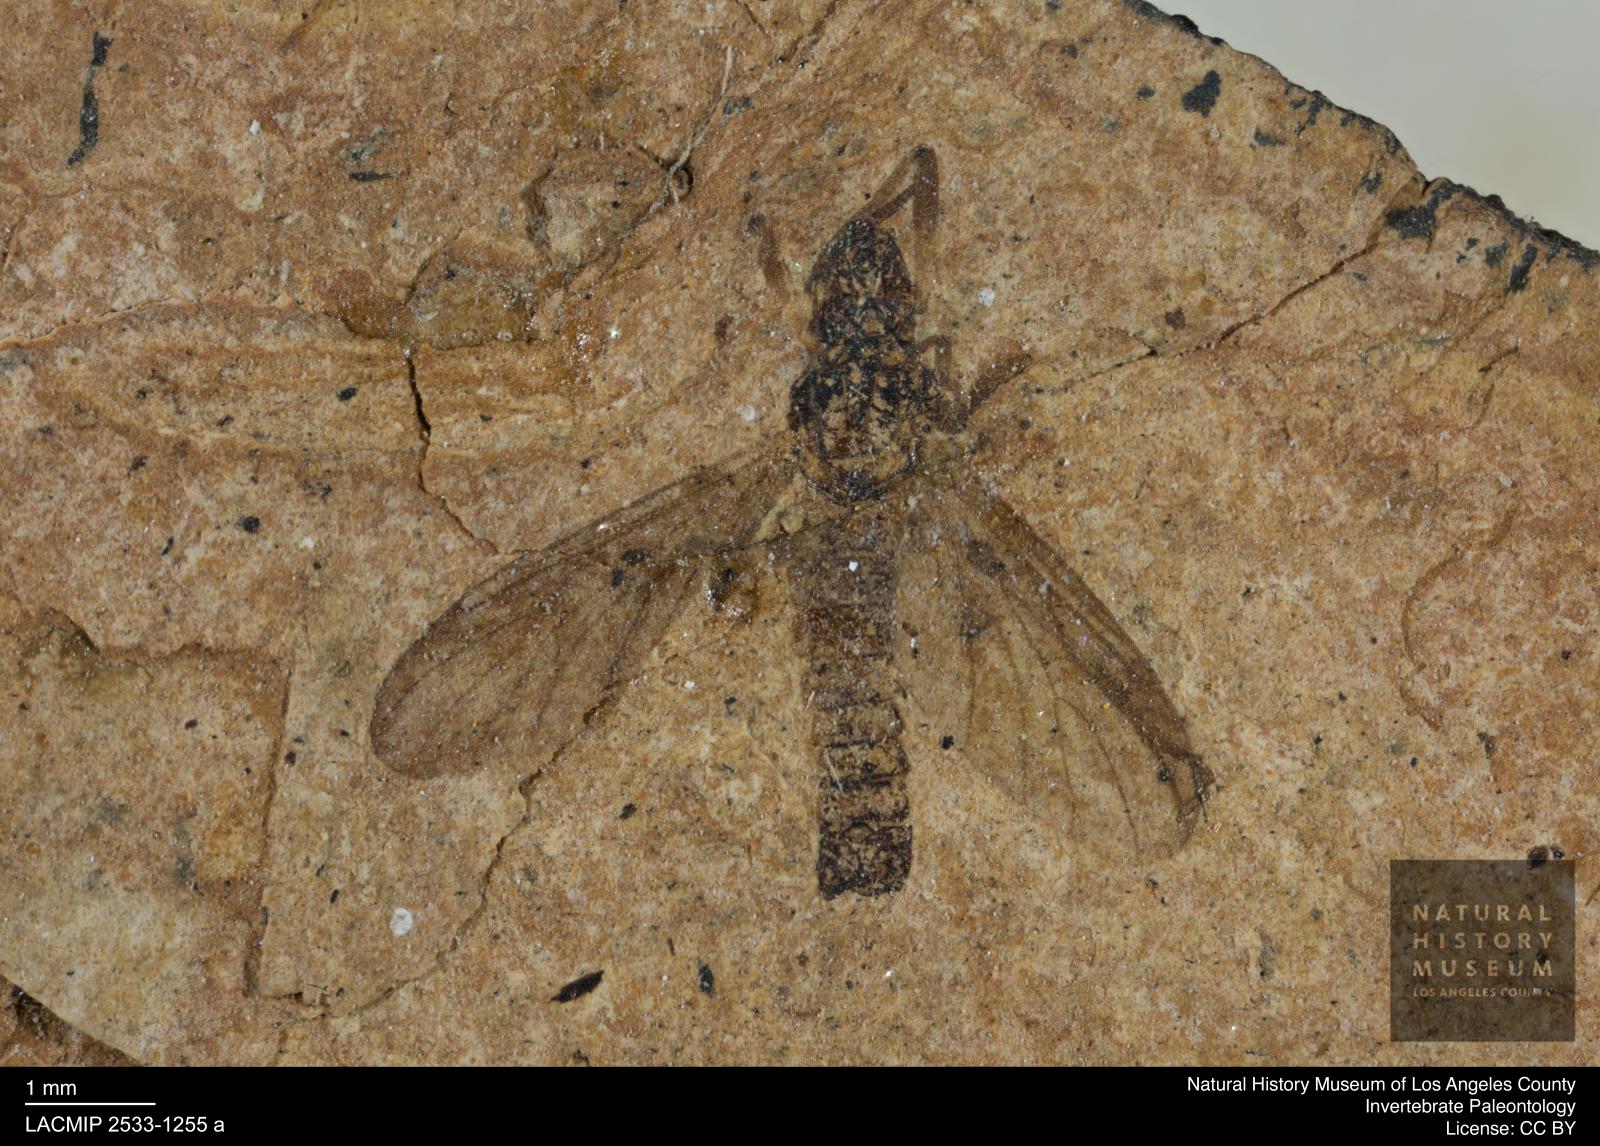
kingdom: Animalia
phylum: Arthropoda
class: Insecta
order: Diptera
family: Bibionidae
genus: Plecia
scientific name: Plecia
